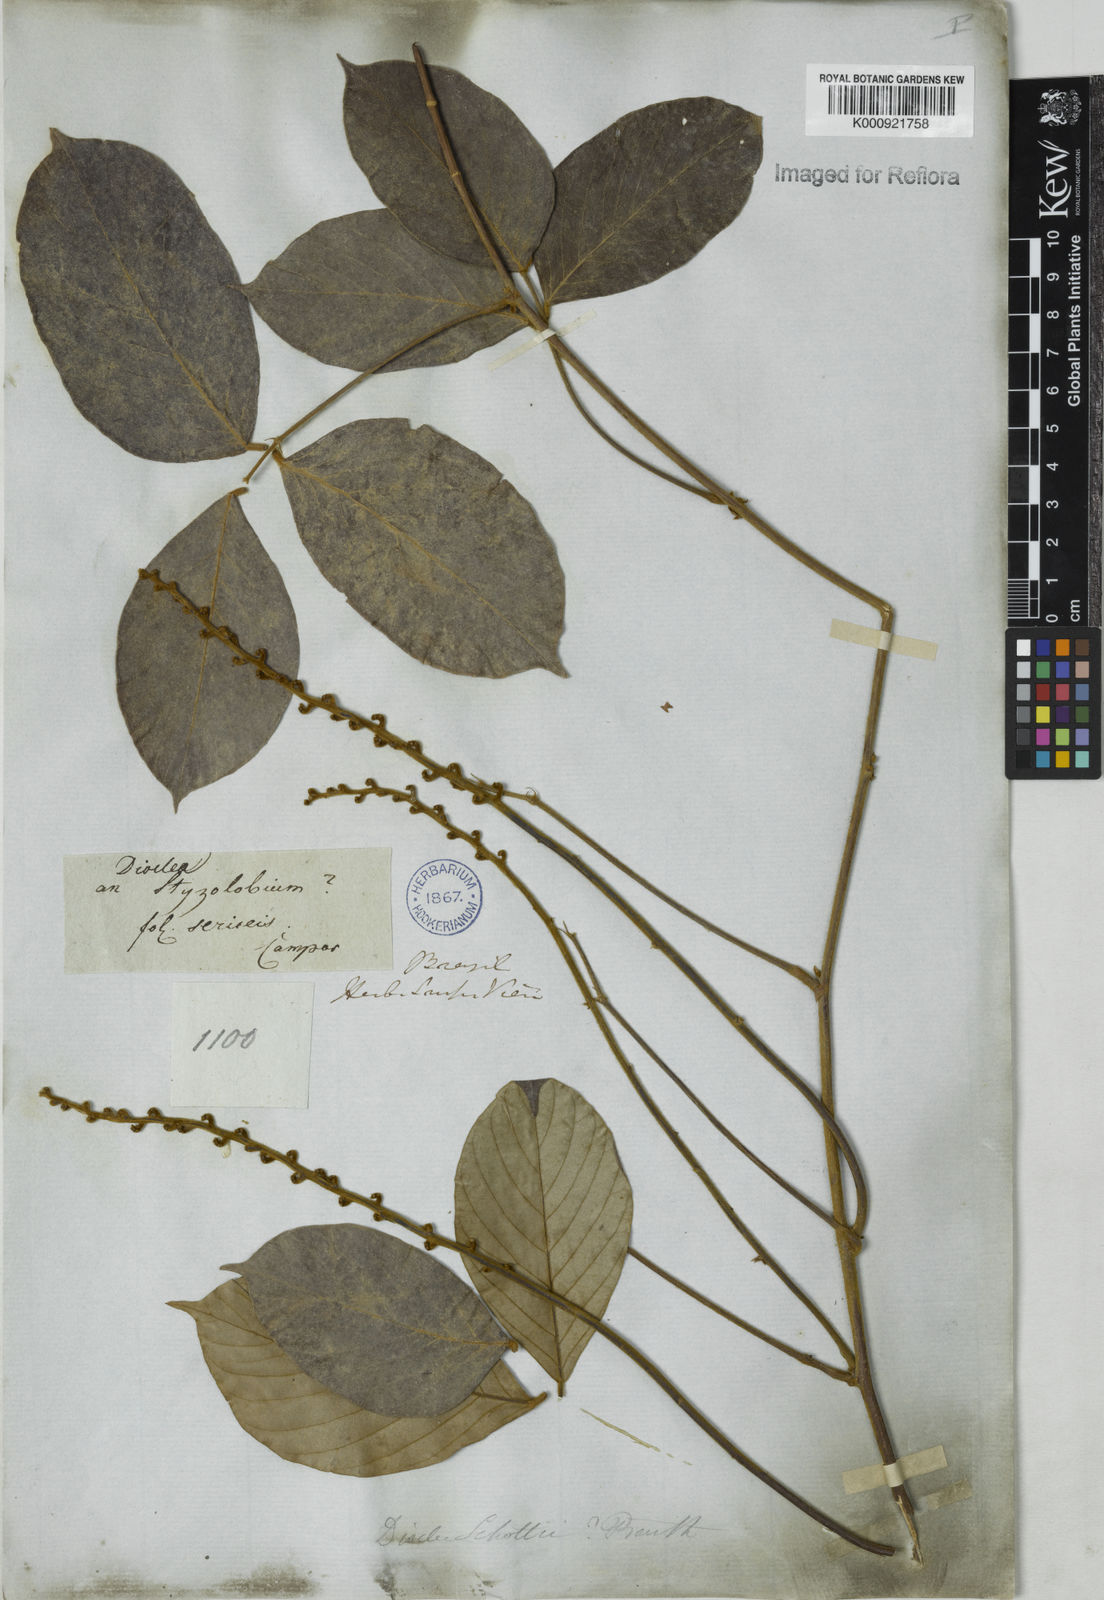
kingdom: Plantae
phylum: Tracheophyta
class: Magnoliopsida
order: Fabales
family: Fabaceae
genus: Macropsychanthus
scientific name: Macropsychanthus schottii
